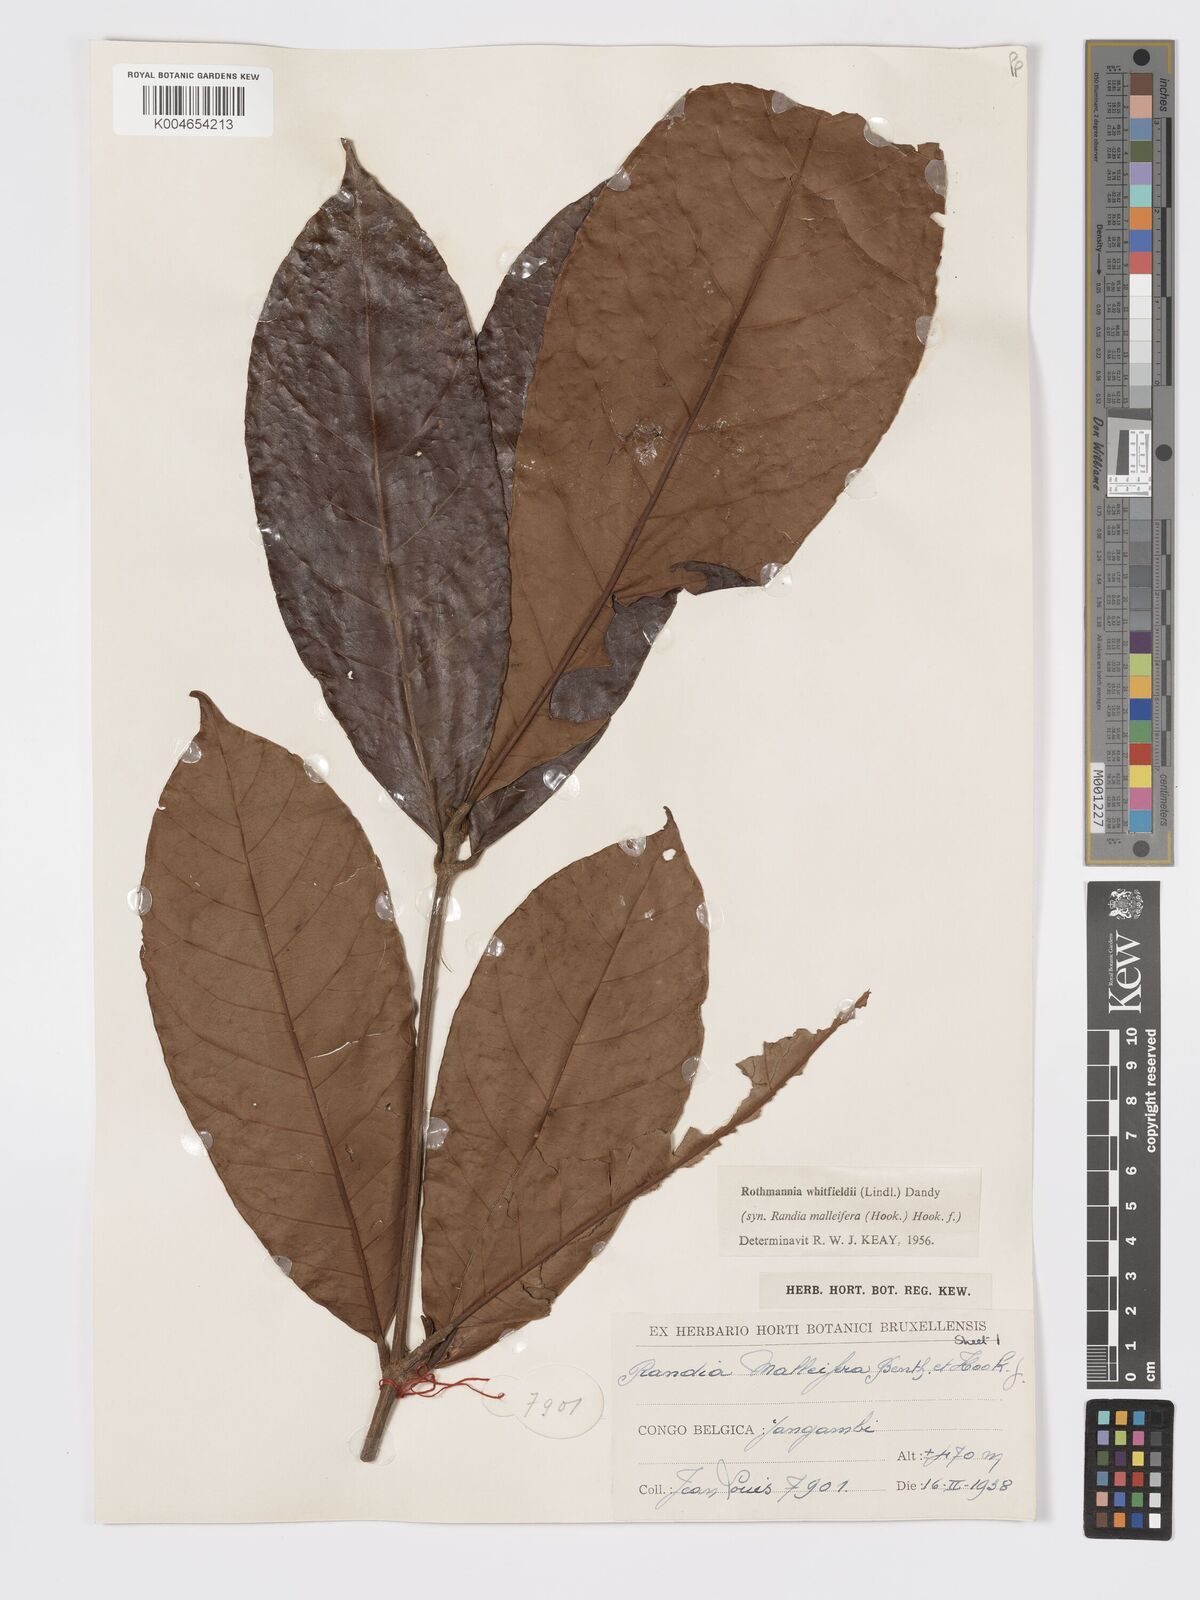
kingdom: Plantae
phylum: Tracheophyta
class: Magnoliopsida
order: Gentianales
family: Rubiaceae
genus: Rothmannia
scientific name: Rothmannia whitfieldii
